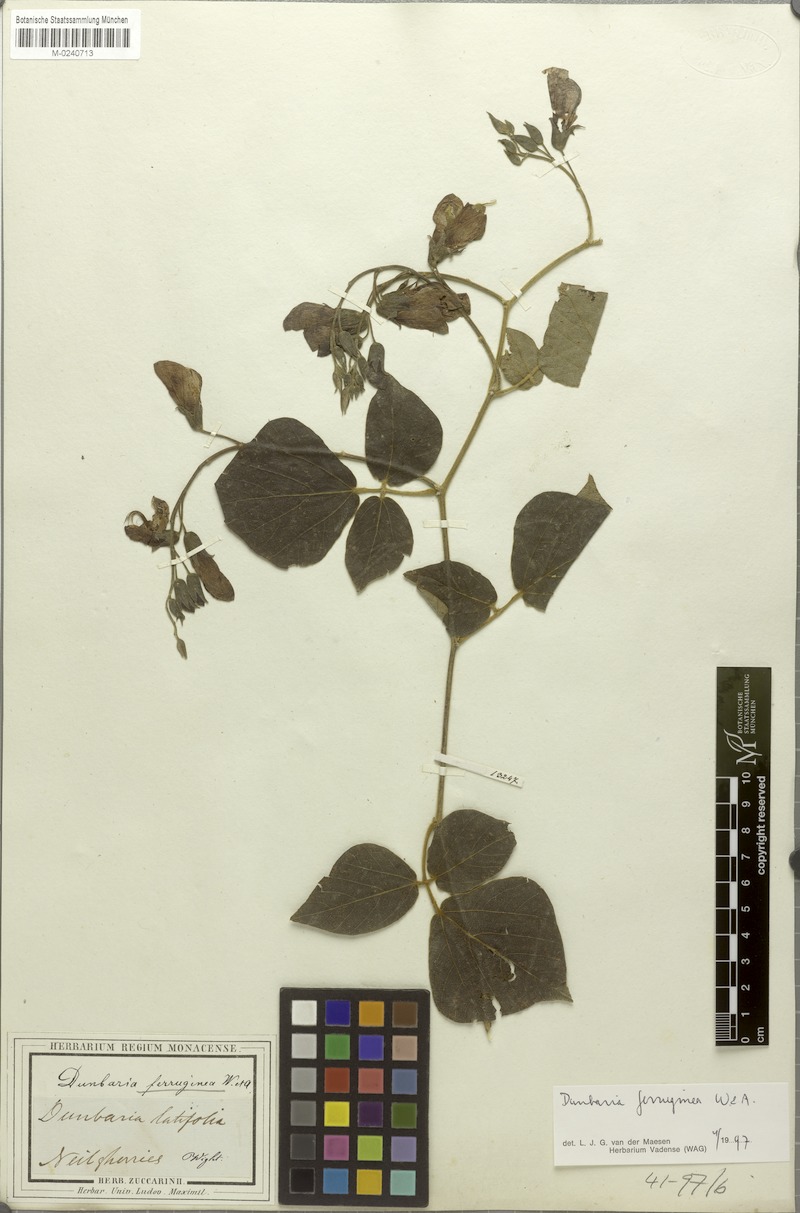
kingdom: Plantae
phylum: Tracheophyta
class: Magnoliopsida
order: Fabales
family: Fabaceae
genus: Dunbaria
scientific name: Dunbaria ferruginea
